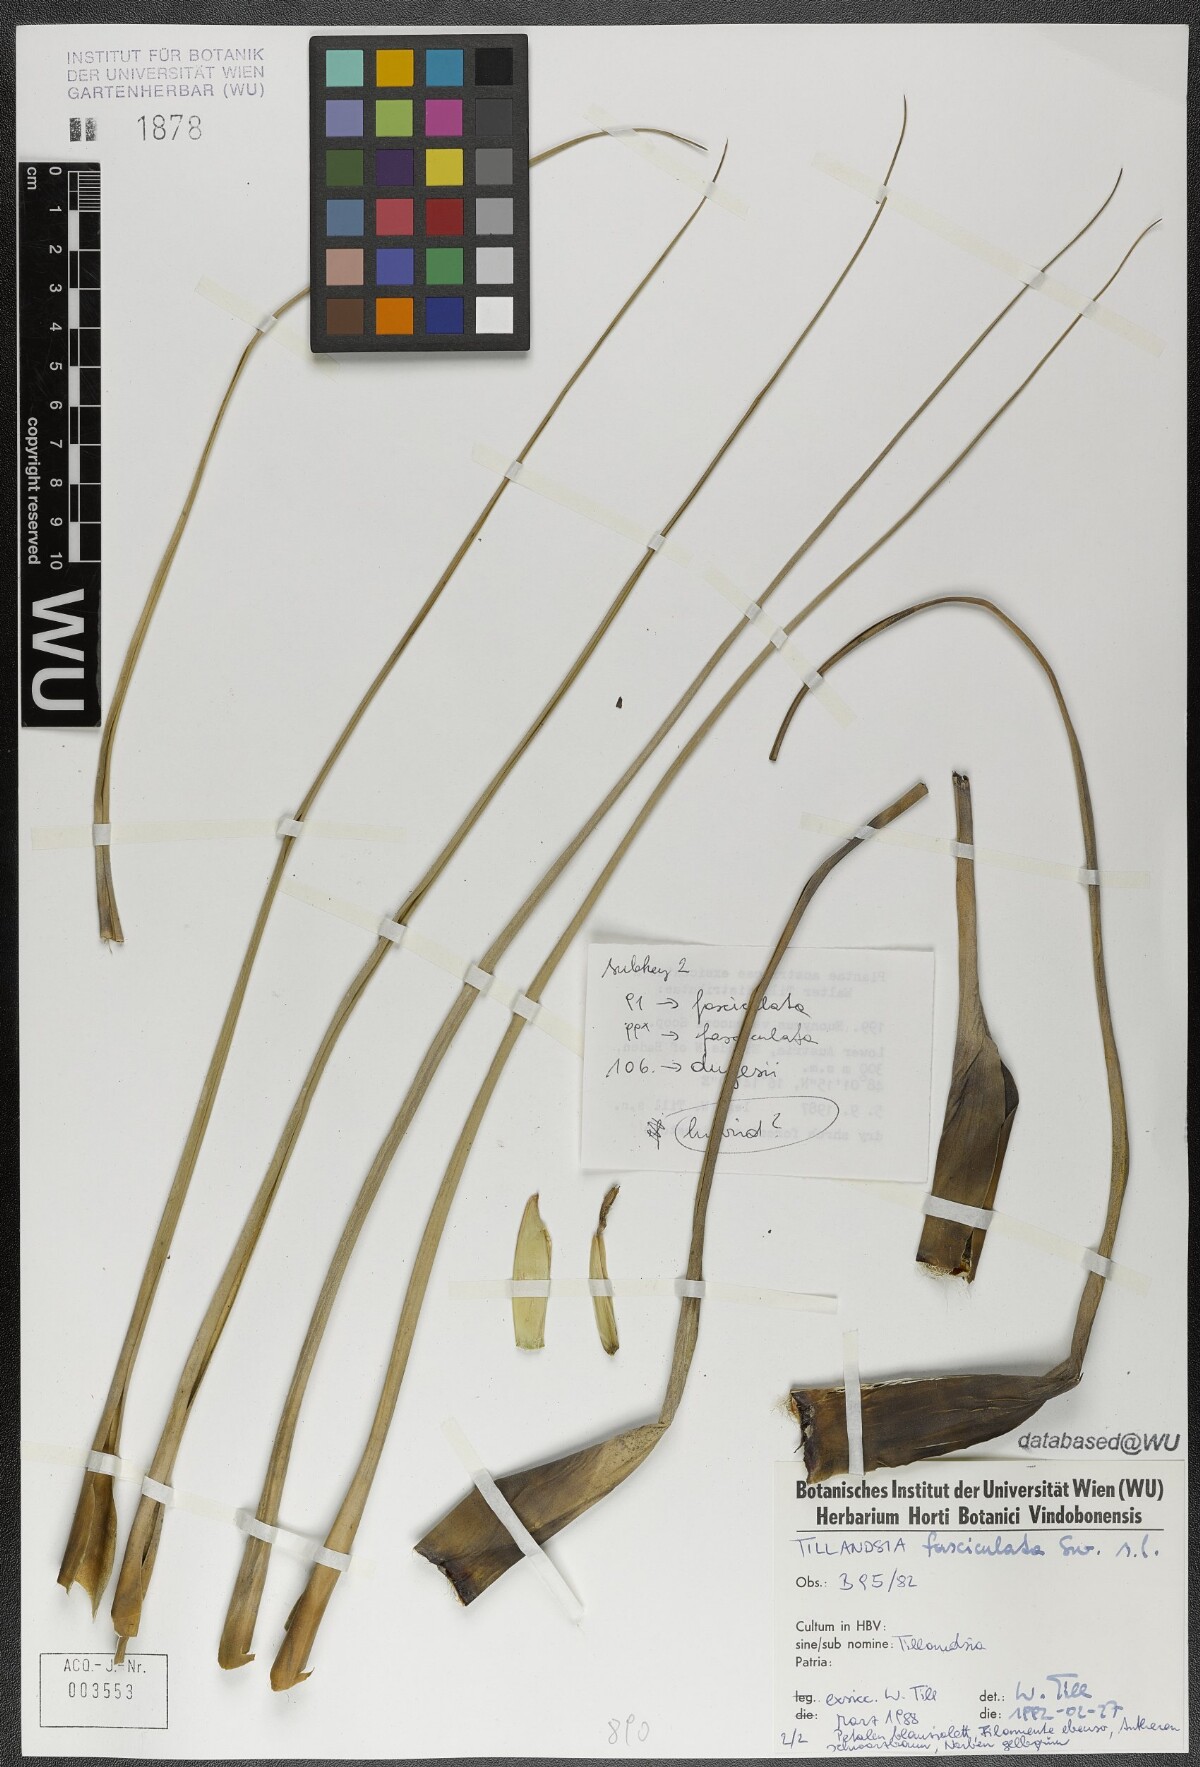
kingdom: Plantae
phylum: Tracheophyta
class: Liliopsida
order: Poales
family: Bromeliaceae
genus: Tillandsia
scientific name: Tillandsia fasciculata
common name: Giant airplant
